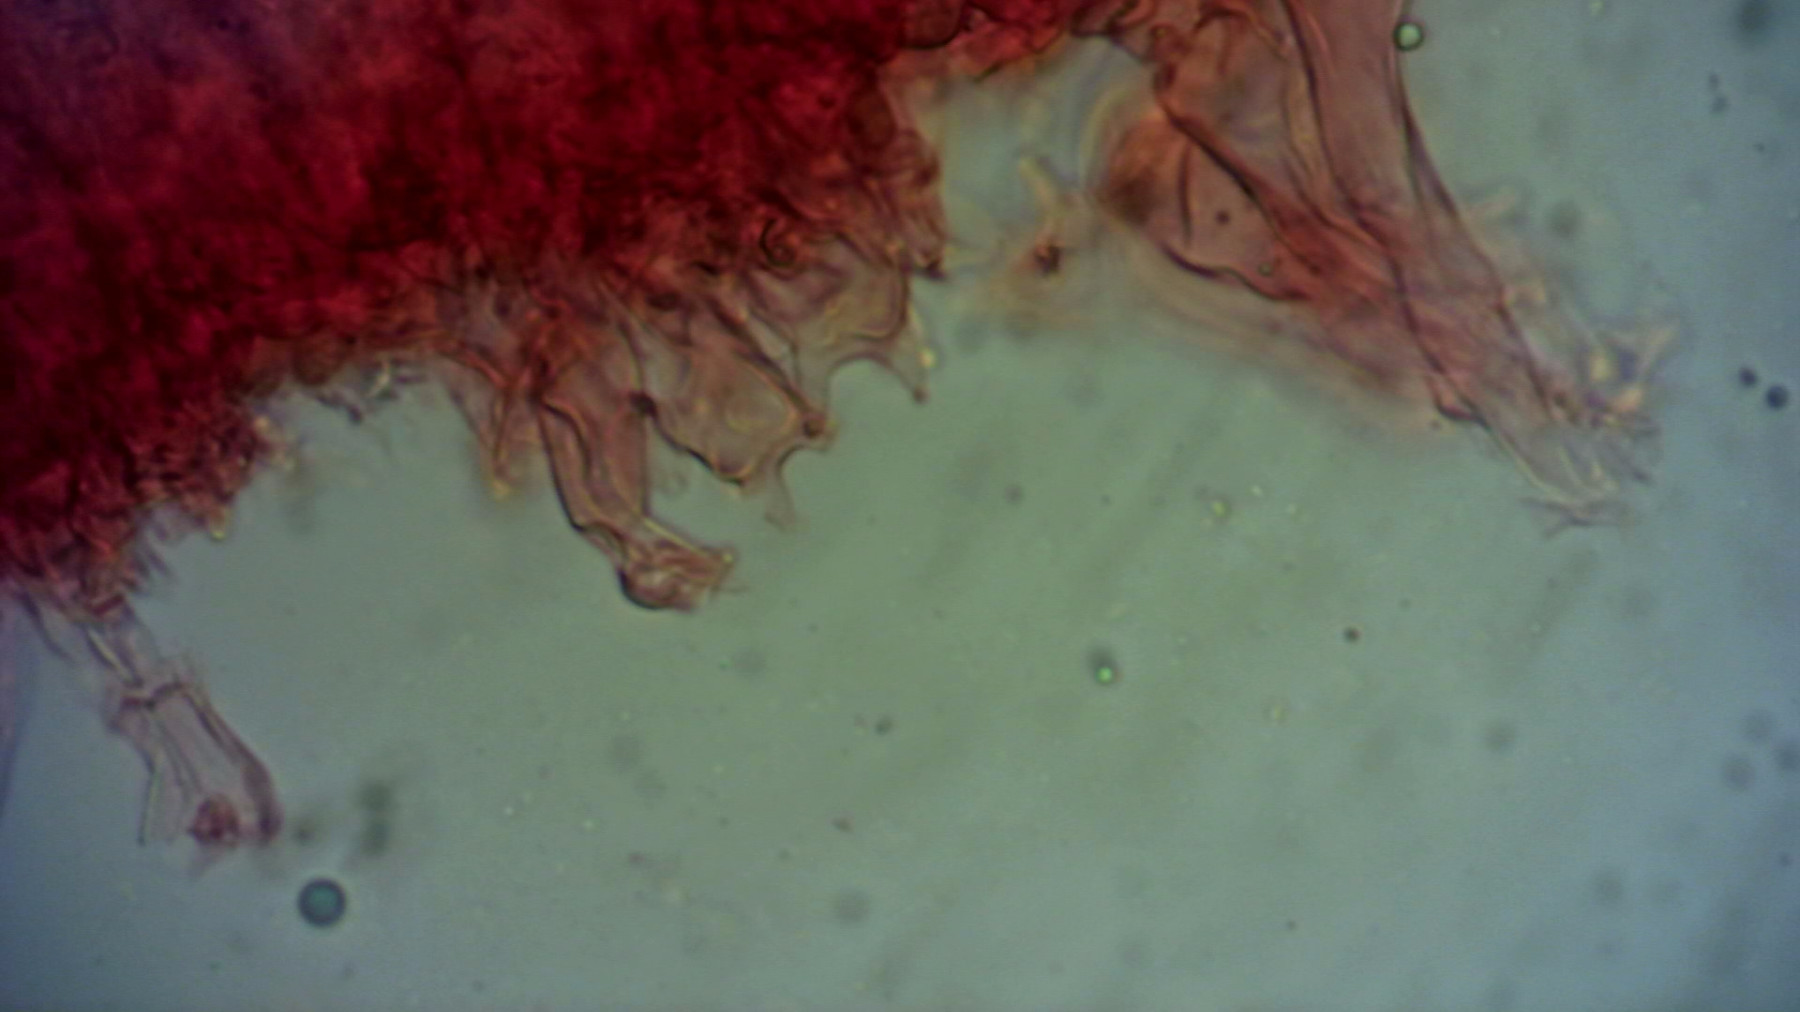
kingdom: Fungi
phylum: Basidiomycota
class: Agaricomycetes
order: Agaricales
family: Niaceae
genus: Lachnella
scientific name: Lachnella alboviolascens
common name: grå frynserede
